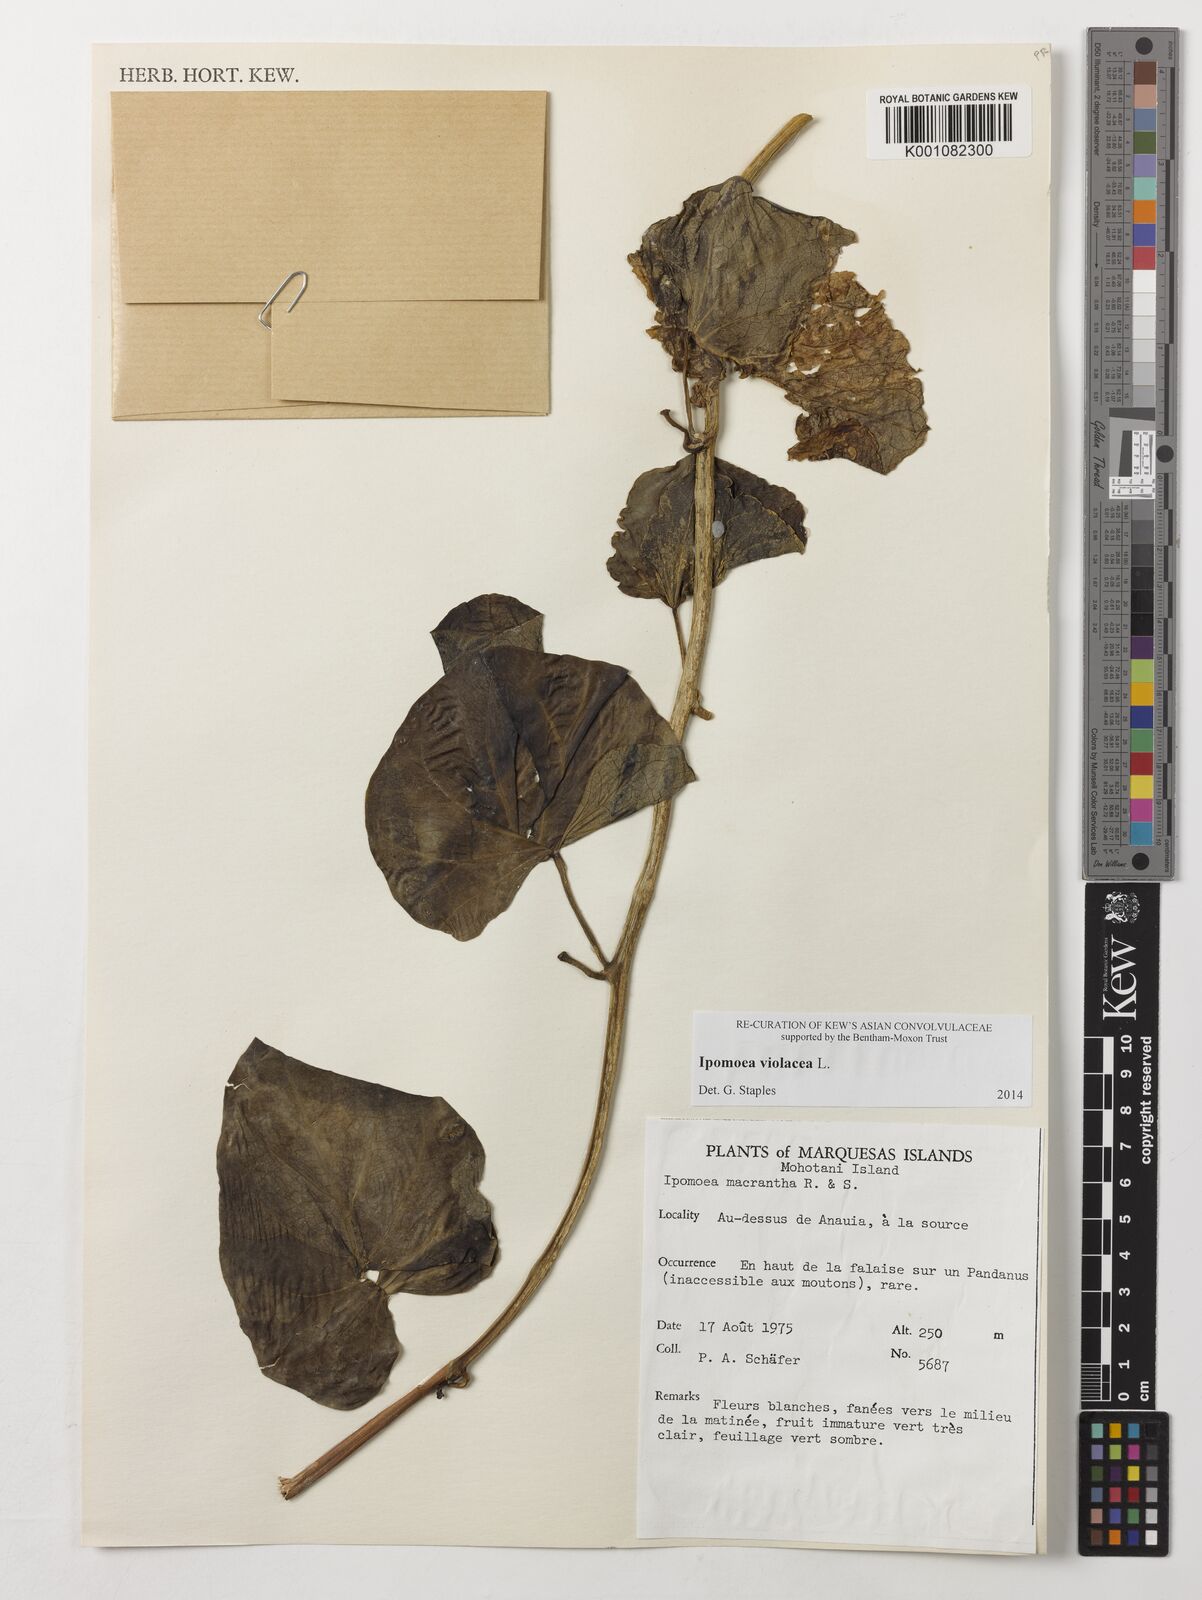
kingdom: Plantae
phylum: Tracheophyta
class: Magnoliopsida
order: Solanales
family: Convolvulaceae
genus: Ipomoea
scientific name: Ipomoea violacea
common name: Beach moonflower
